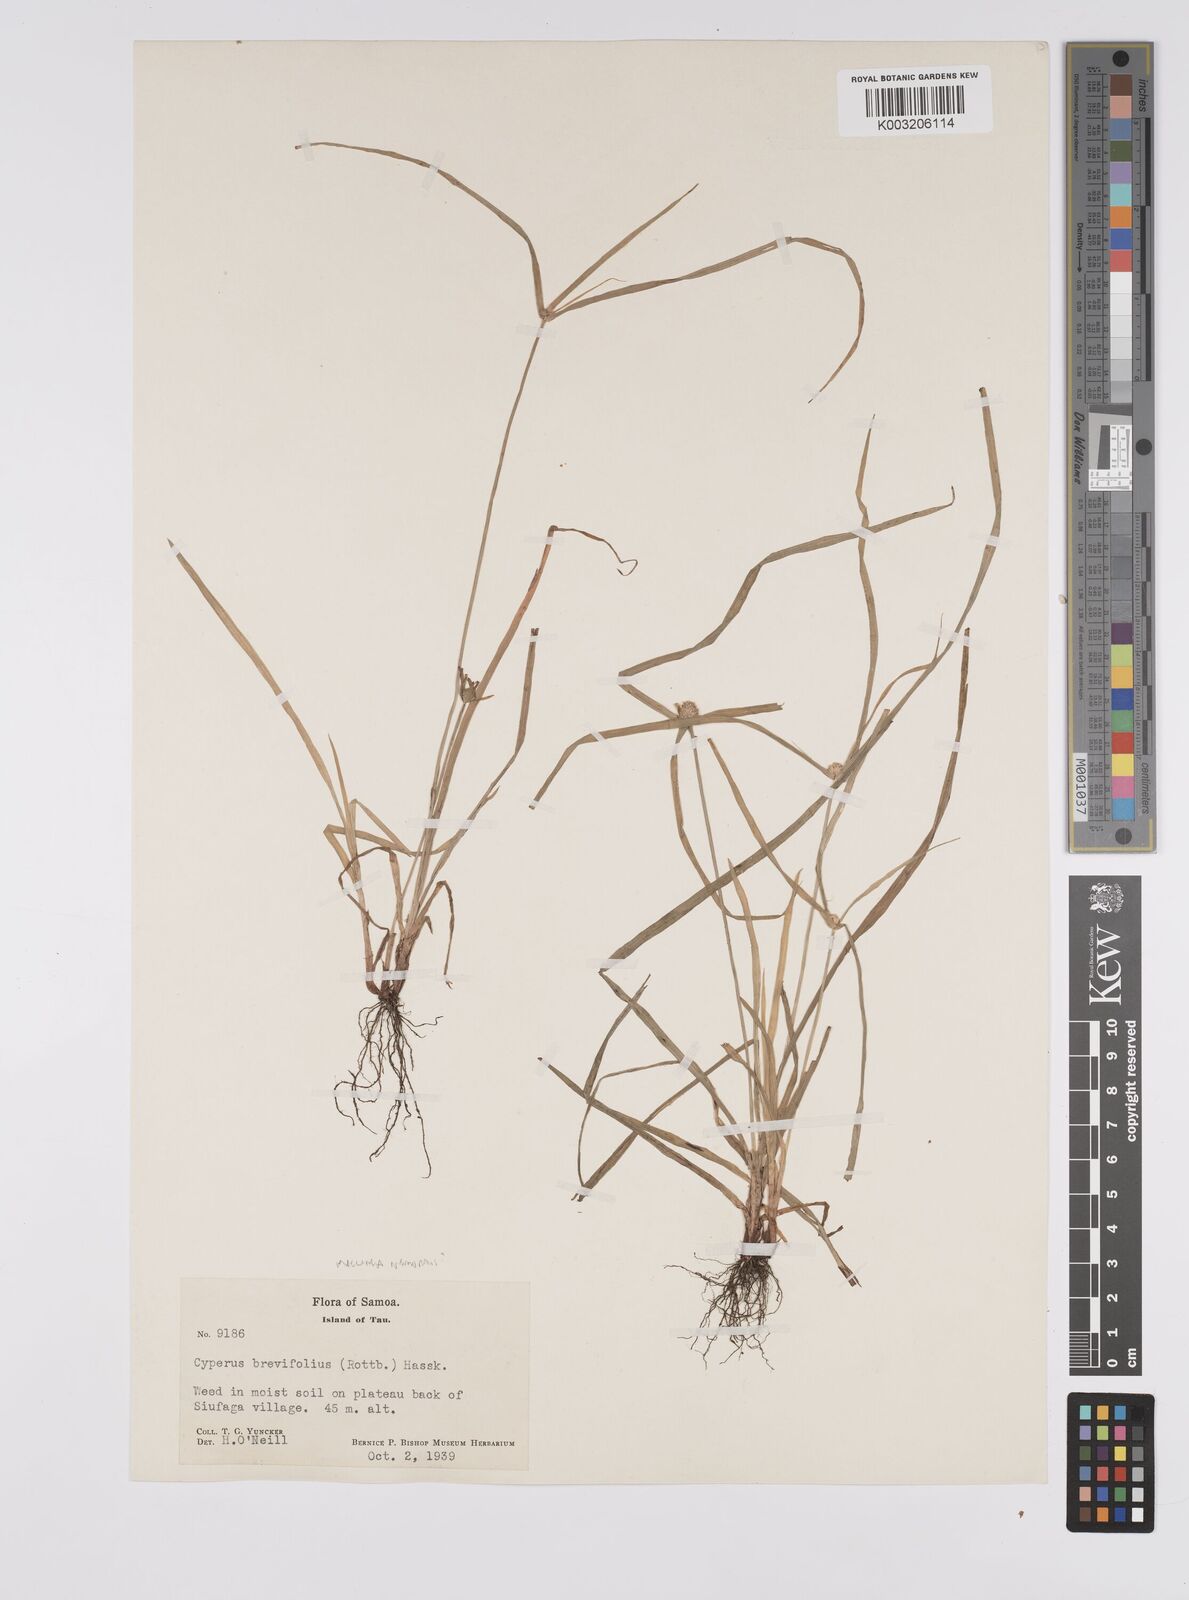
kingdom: Plantae
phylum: Tracheophyta
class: Liliopsida
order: Poales
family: Cyperaceae
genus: Cyperus
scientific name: Cyperus nemoralis
